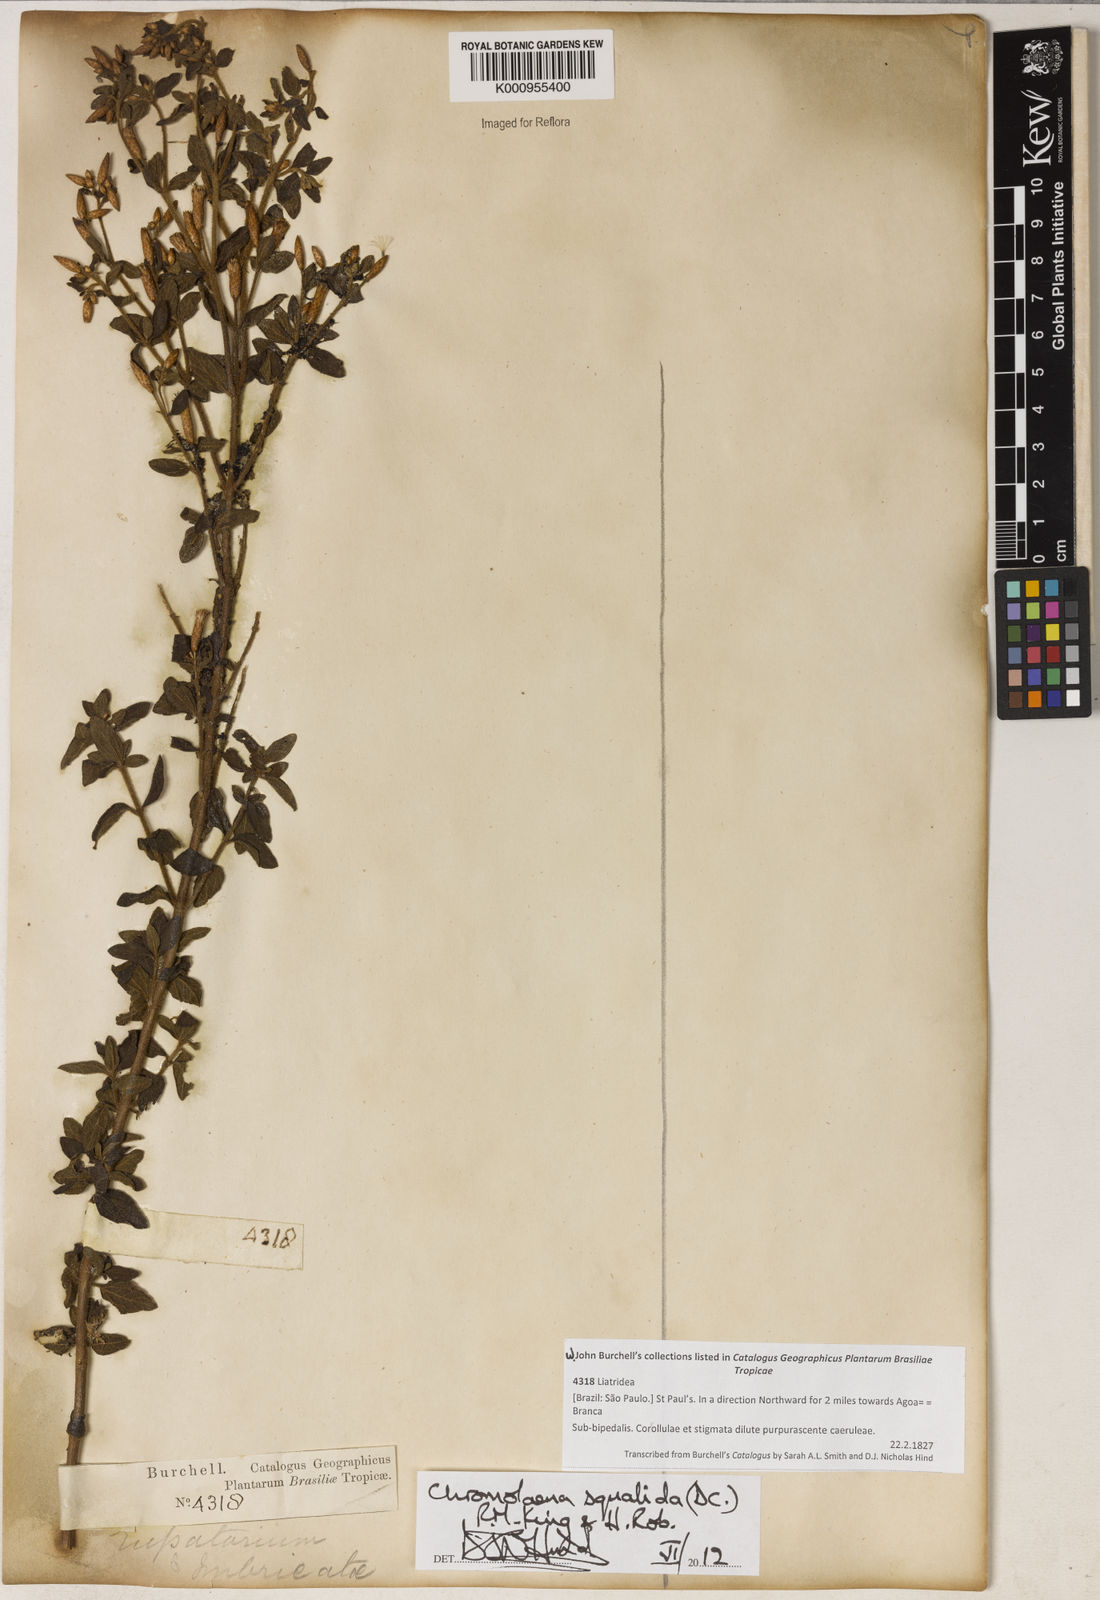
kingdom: Plantae
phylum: Tracheophyta
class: Magnoliopsida
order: Asterales
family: Asteraceae
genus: Chromolaena
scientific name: Chromolaena squalida
